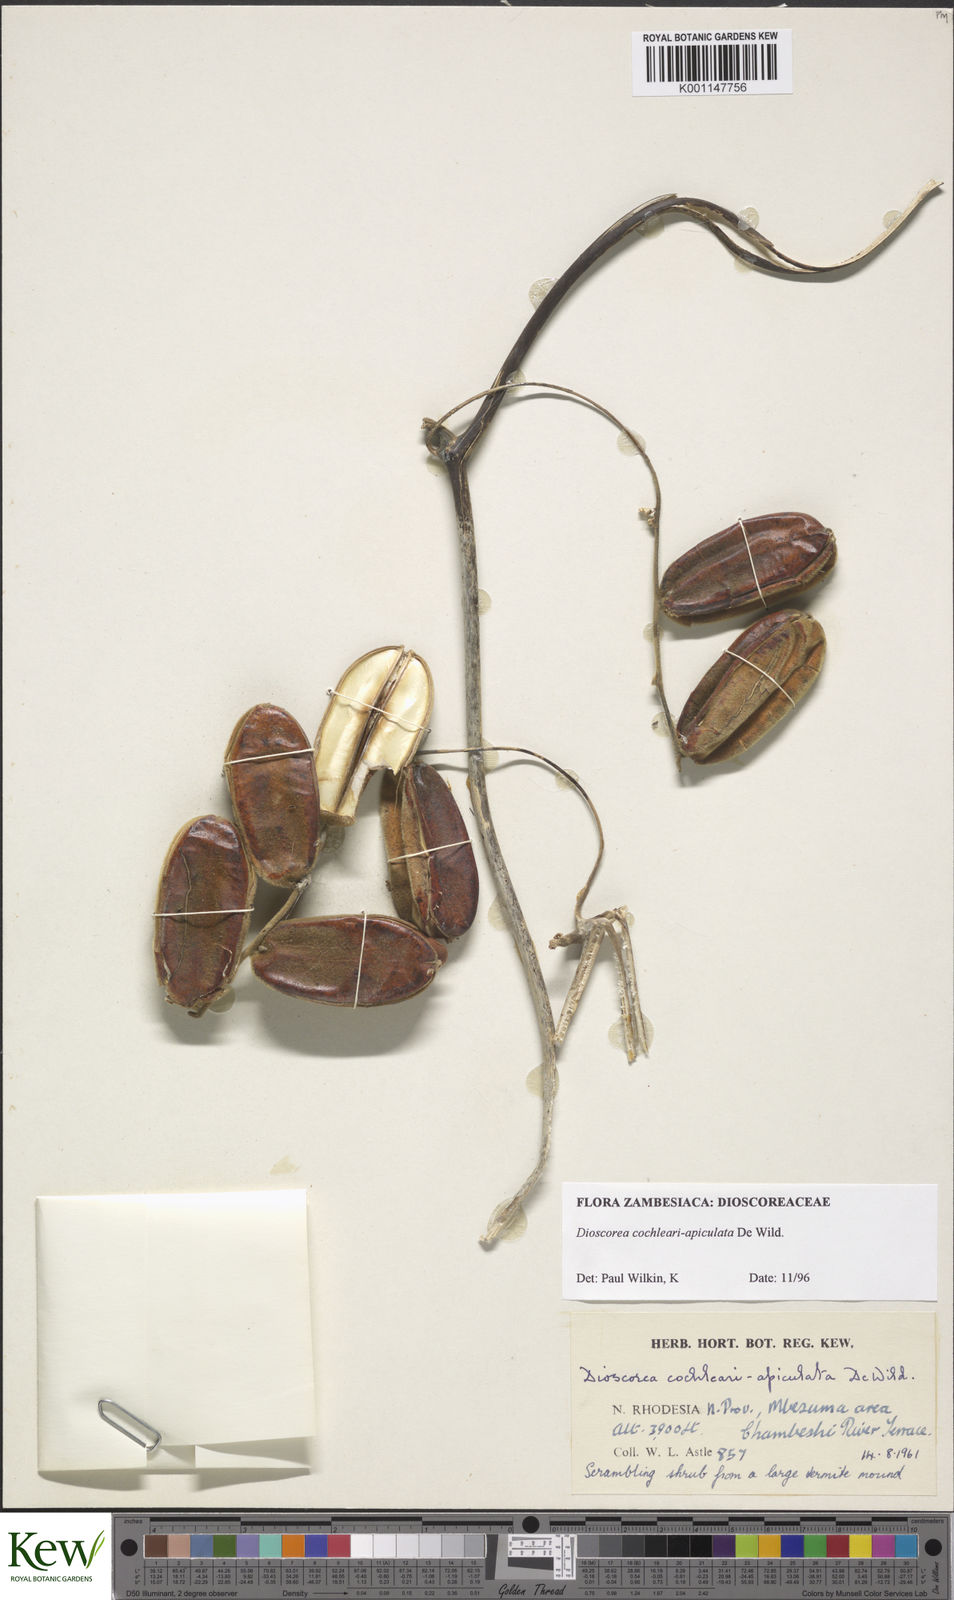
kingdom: Plantae
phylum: Tracheophyta
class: Liliopsida
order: Dioscoreales
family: Dioscoreaceae
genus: Dioscorea
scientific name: Dioscorea cochleariapiculata
